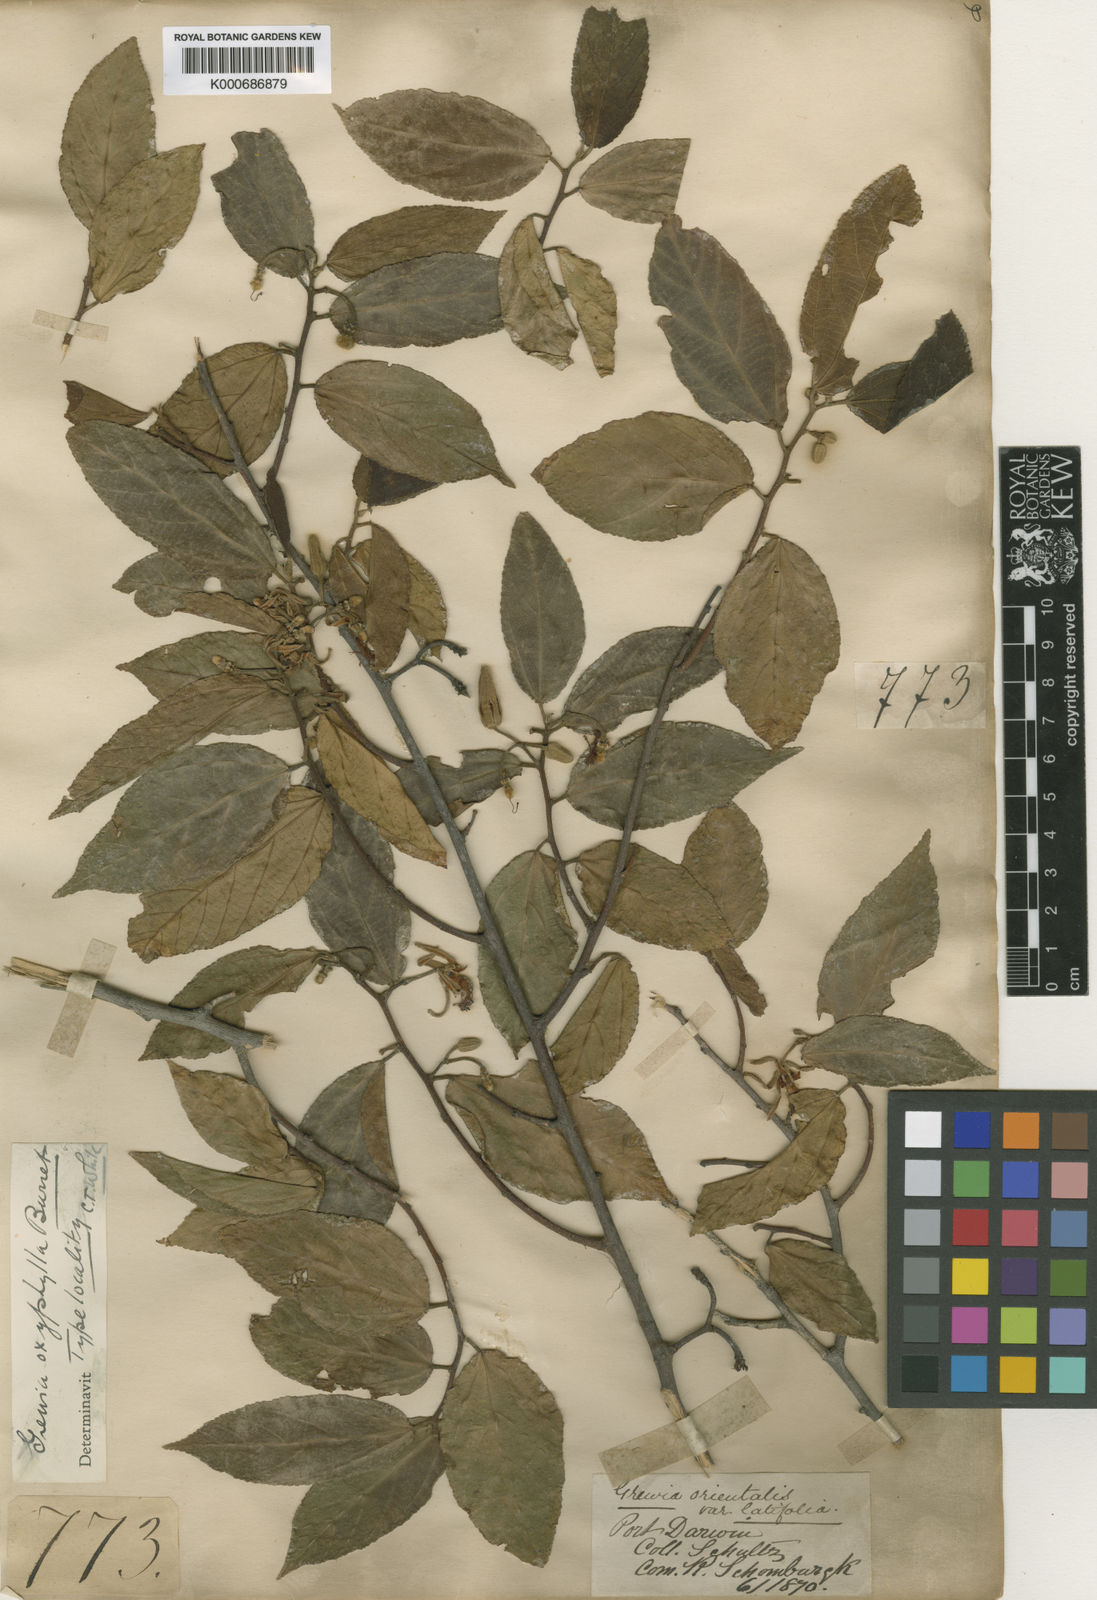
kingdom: Plantae
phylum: Tracheophyta
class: Magnoliopsida
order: Malvales
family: Malvaceae
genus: Grewia
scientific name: Grewia orientalis
